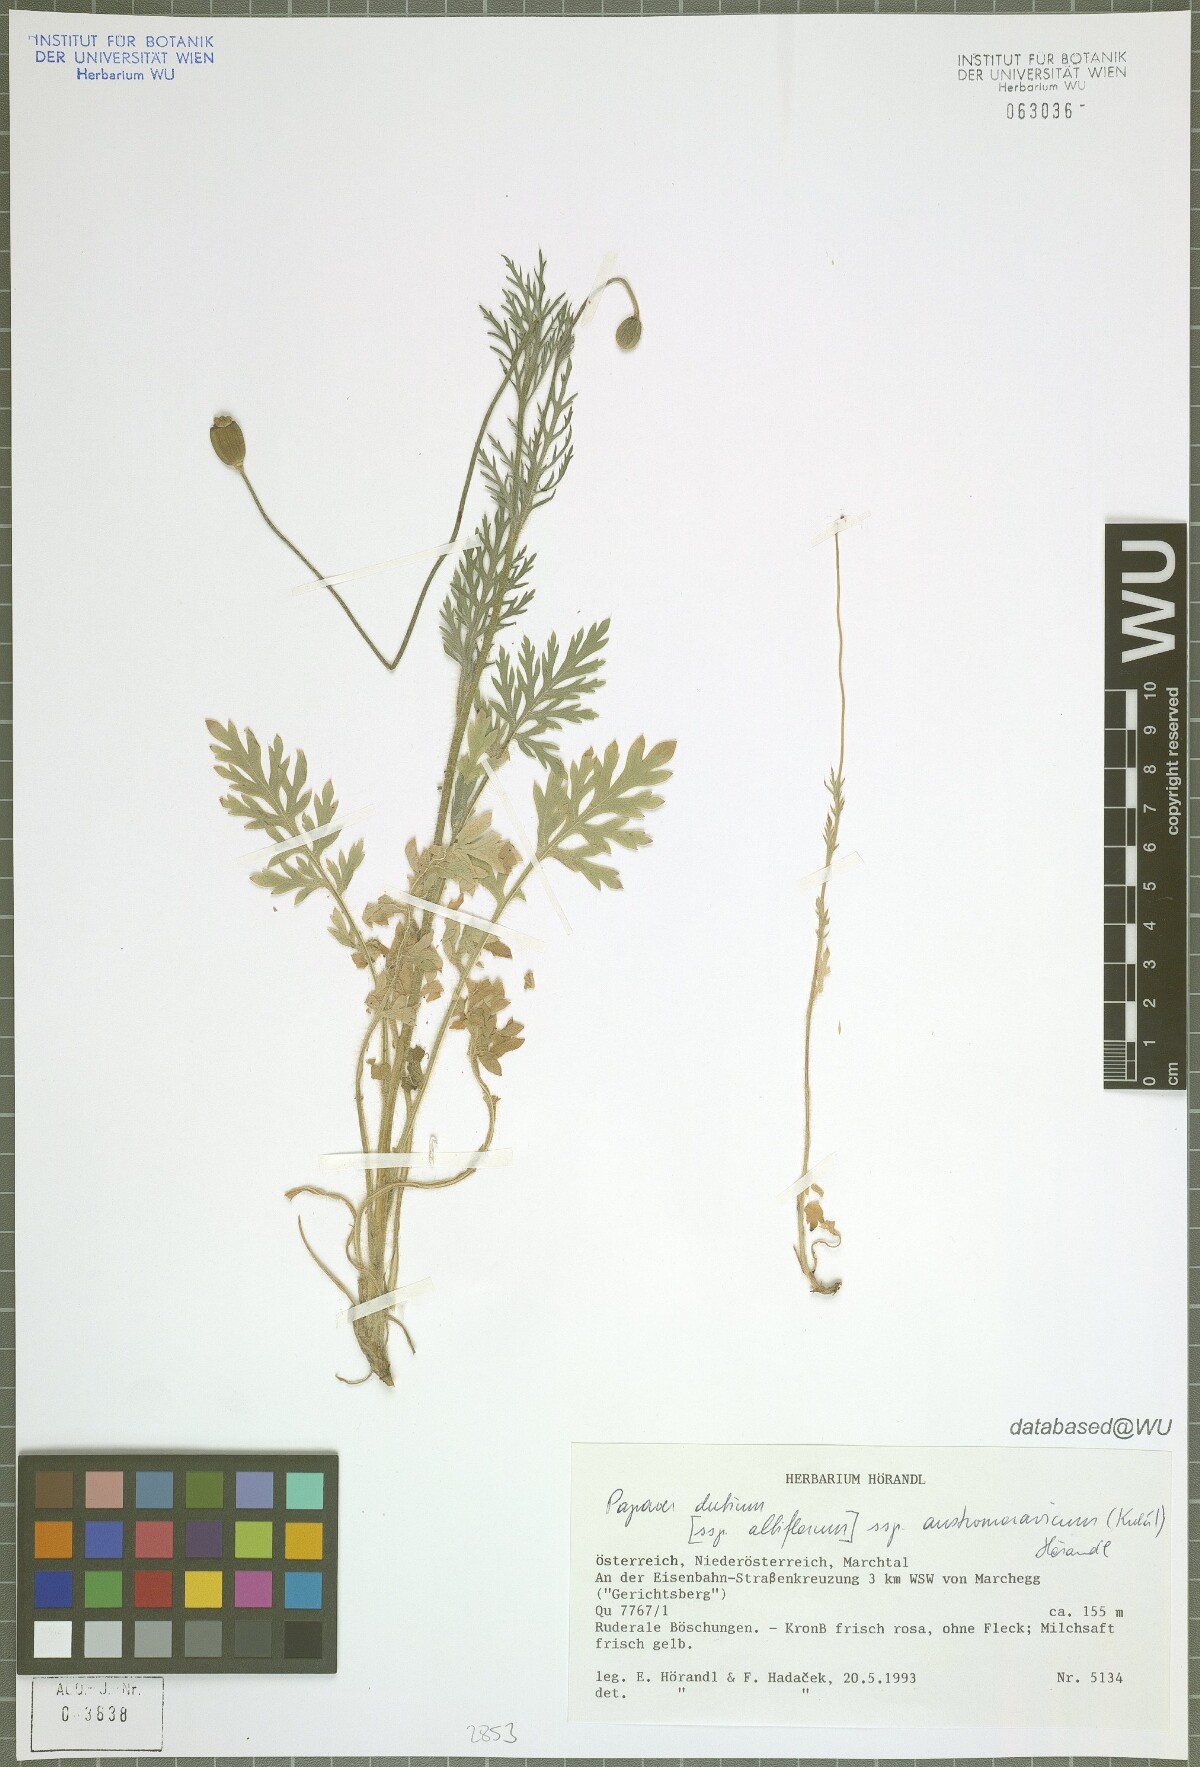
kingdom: Plantae
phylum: Tracheophyta
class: Magnoliopsida
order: Ranunculales
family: Papaveraceae
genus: Papaver
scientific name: Papaver dubium
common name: Long-headed poppy
